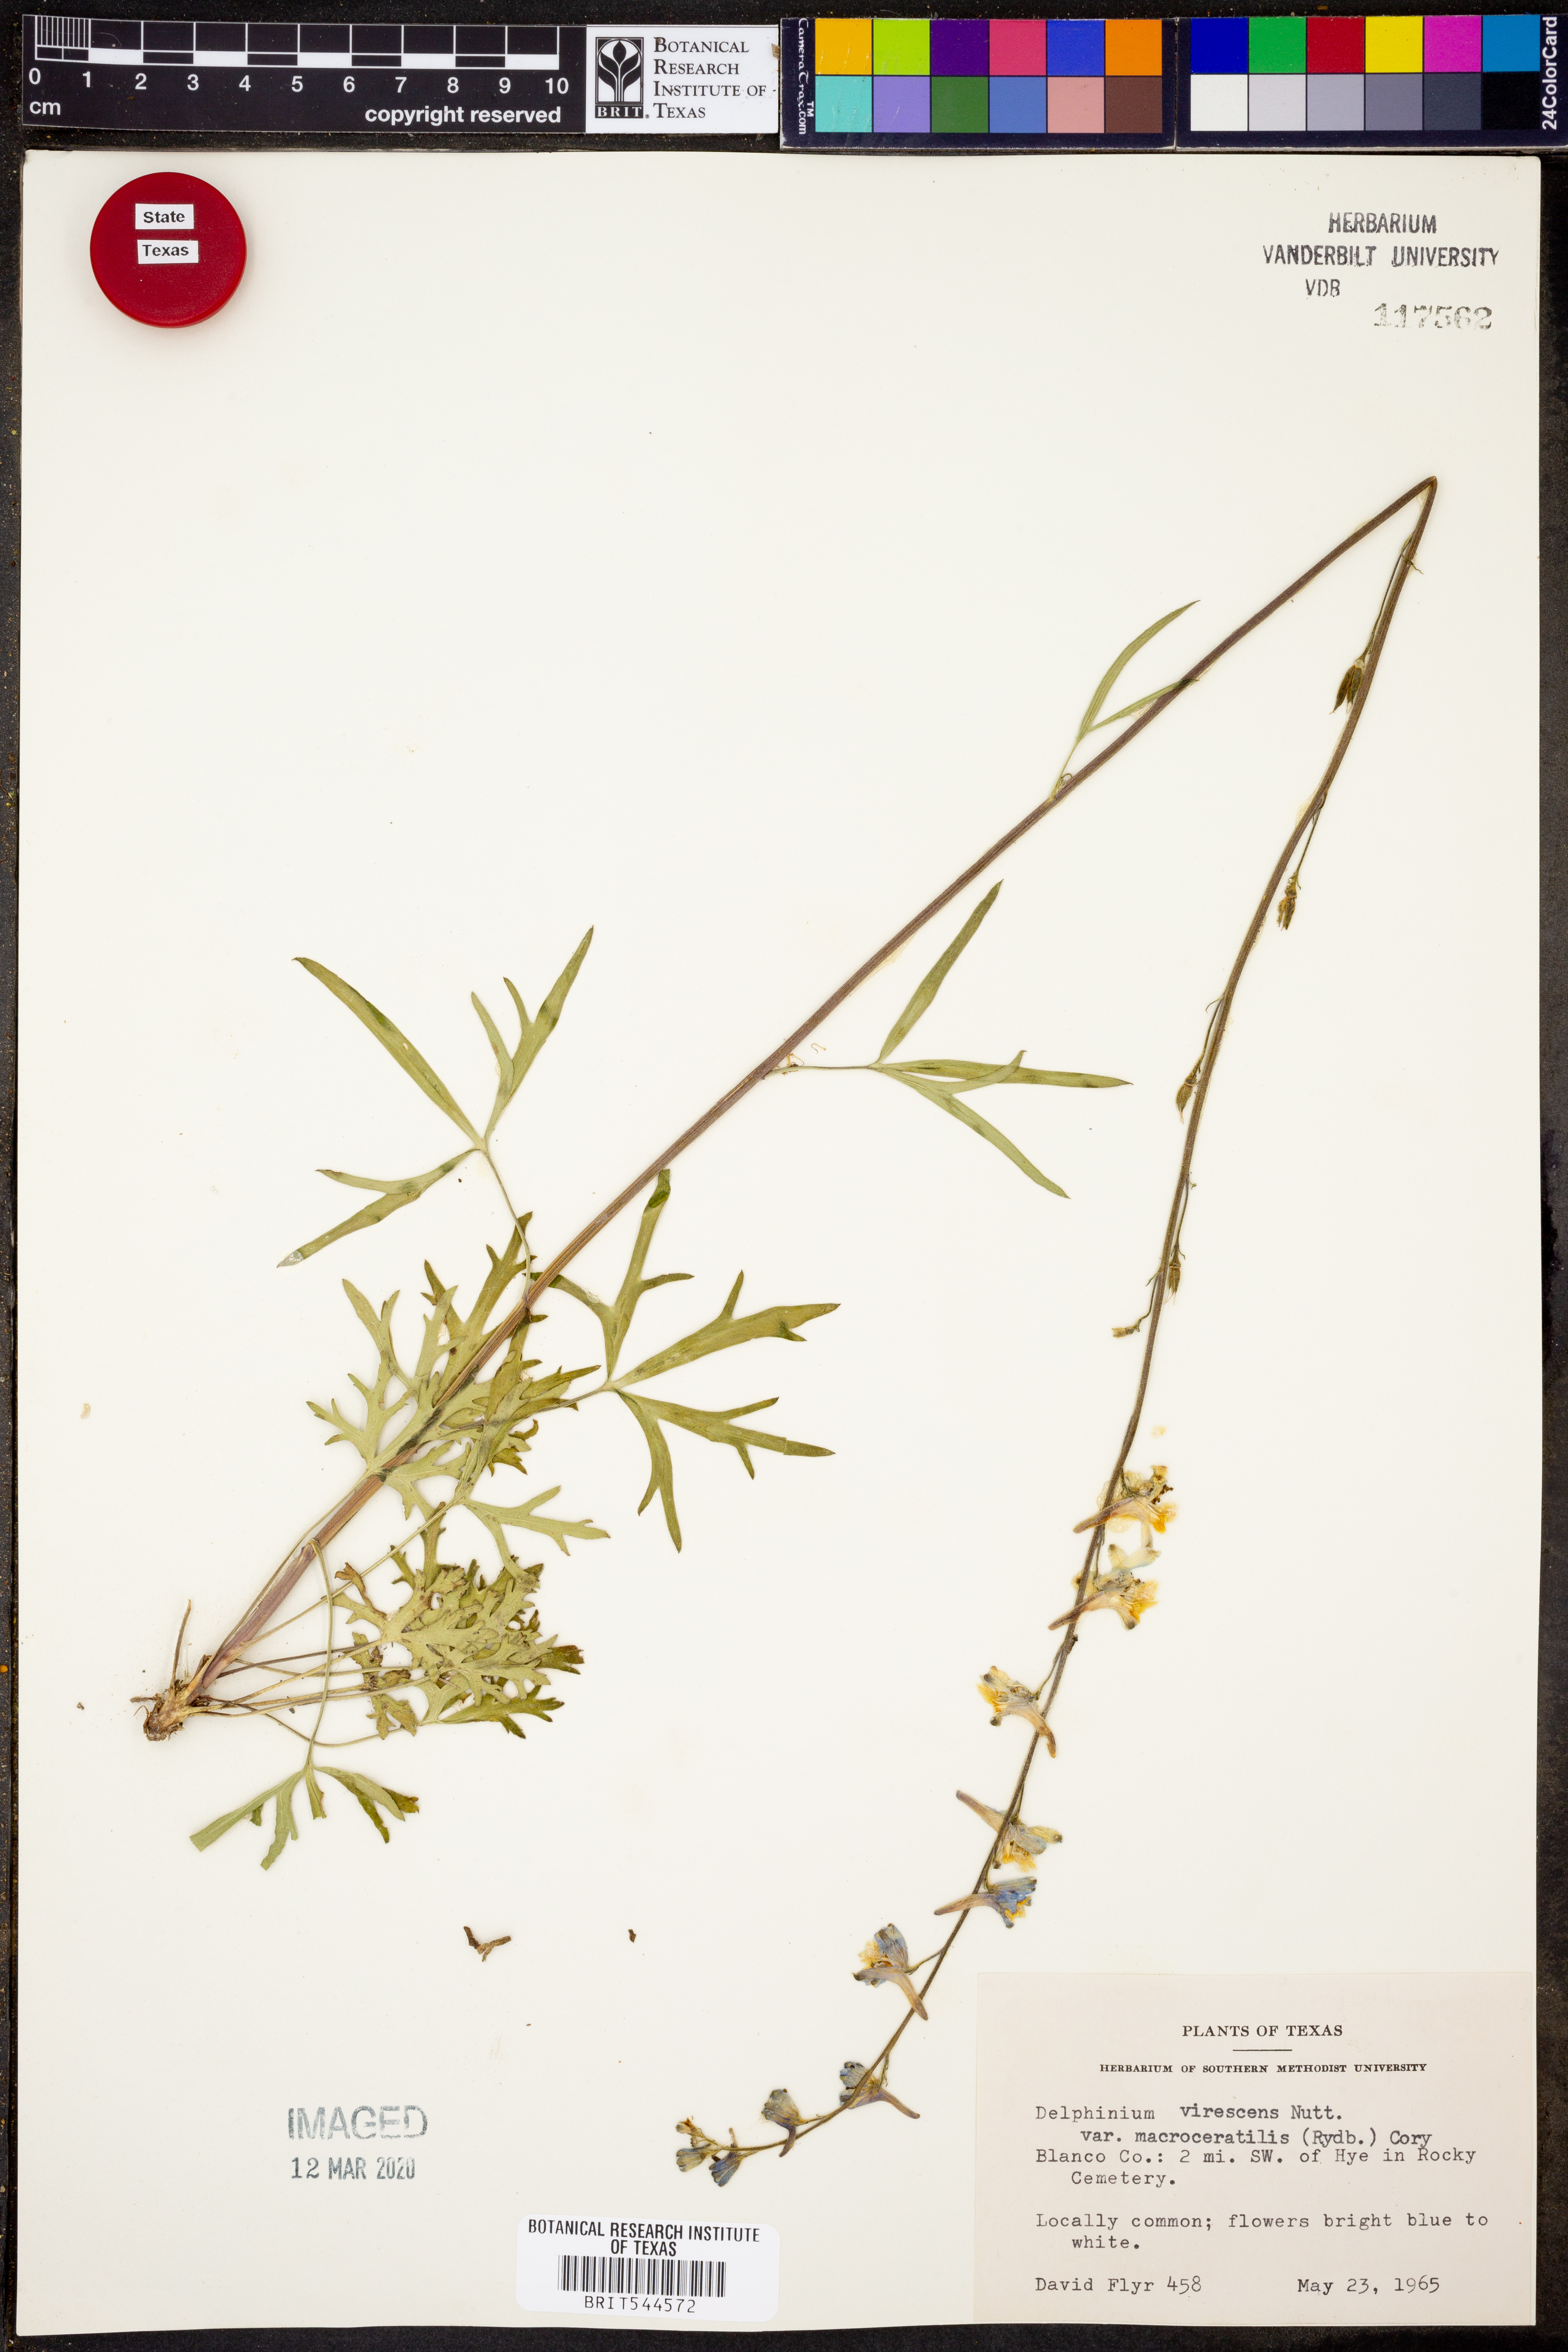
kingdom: Plantae
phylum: Tracheophyta
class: Magnoliopsida
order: Ranunculales
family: Ranunculaceae
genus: Delphinium
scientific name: Delphinium carolinianum
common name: Carolina larkspur
